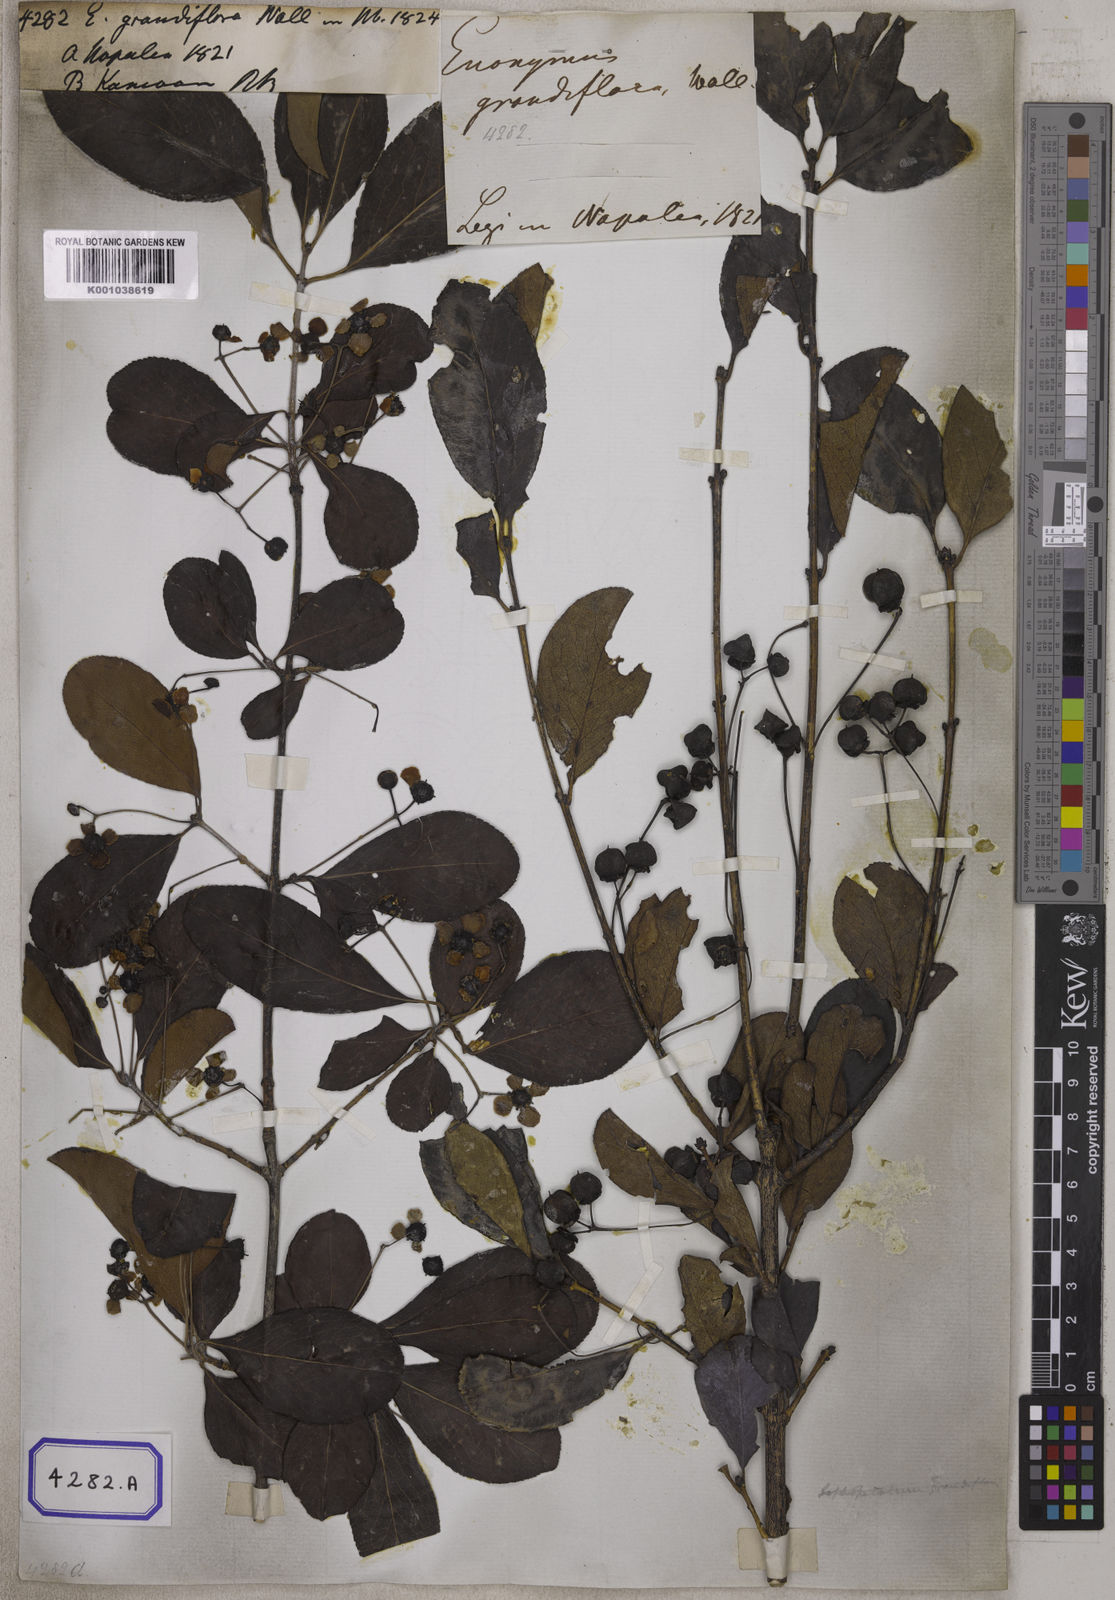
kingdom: Plantae
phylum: Tracheophyta
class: Magnoliopsida
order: Celastrales
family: Celastraceae
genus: Euonymus
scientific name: Euonymus grandiflorus
